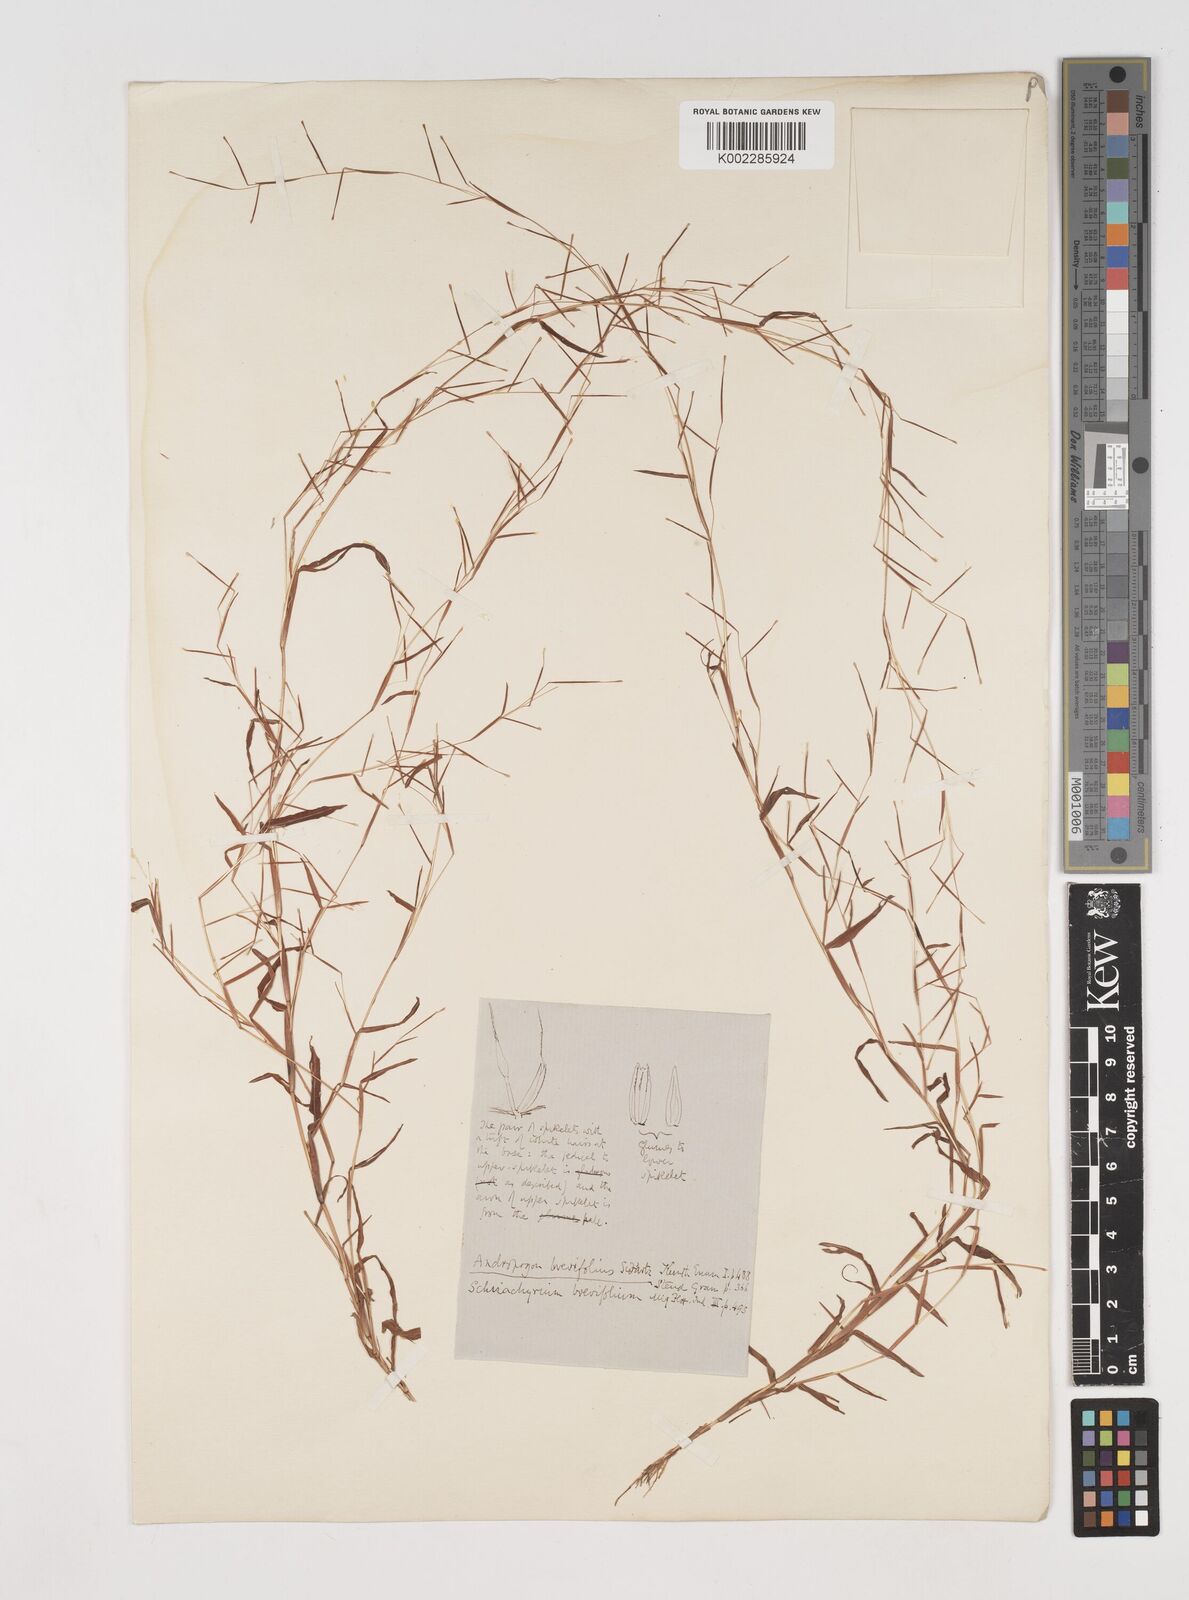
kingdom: Plantae
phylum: Tracheophyta
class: Liliopsida
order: Poales
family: Poaceae
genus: Schizachyrium
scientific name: Schizachyrium brevifolium
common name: Serillo dulce
